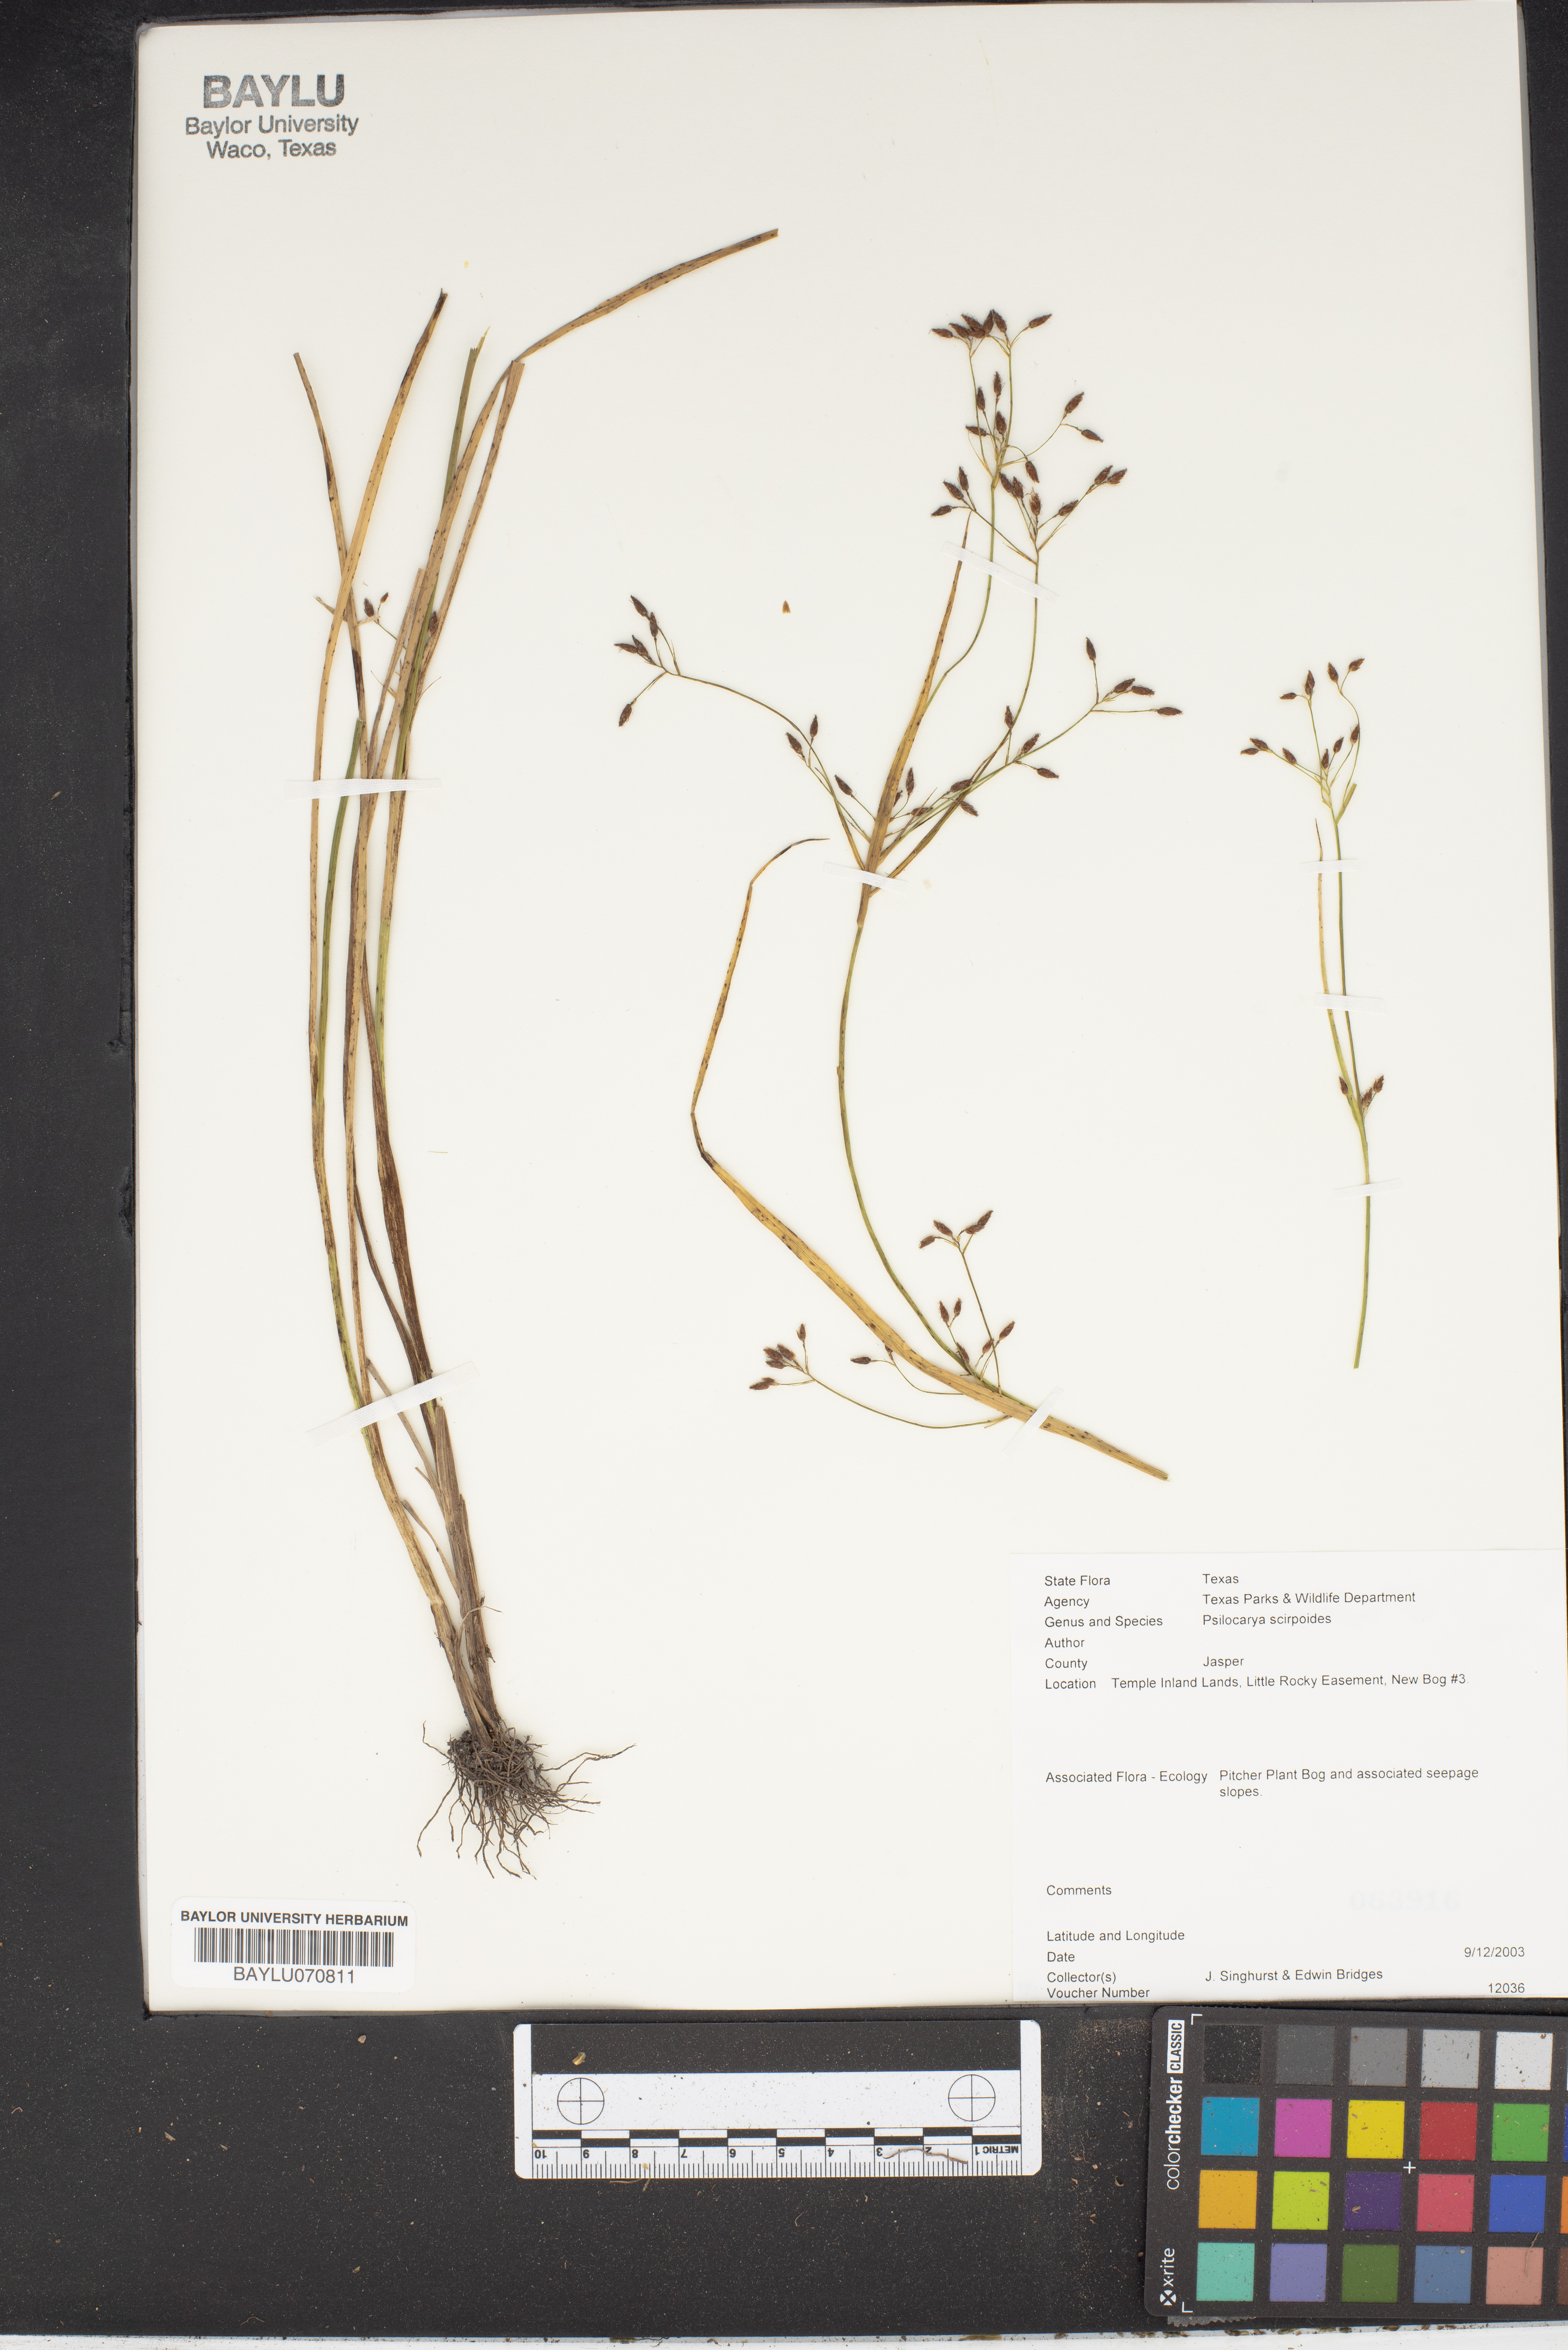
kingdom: Plantae
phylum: Tracheophyta
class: Liliopsida
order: Poales
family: Cyperaceae
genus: Rhynchospora
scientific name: Rhynchospora scirpoides
